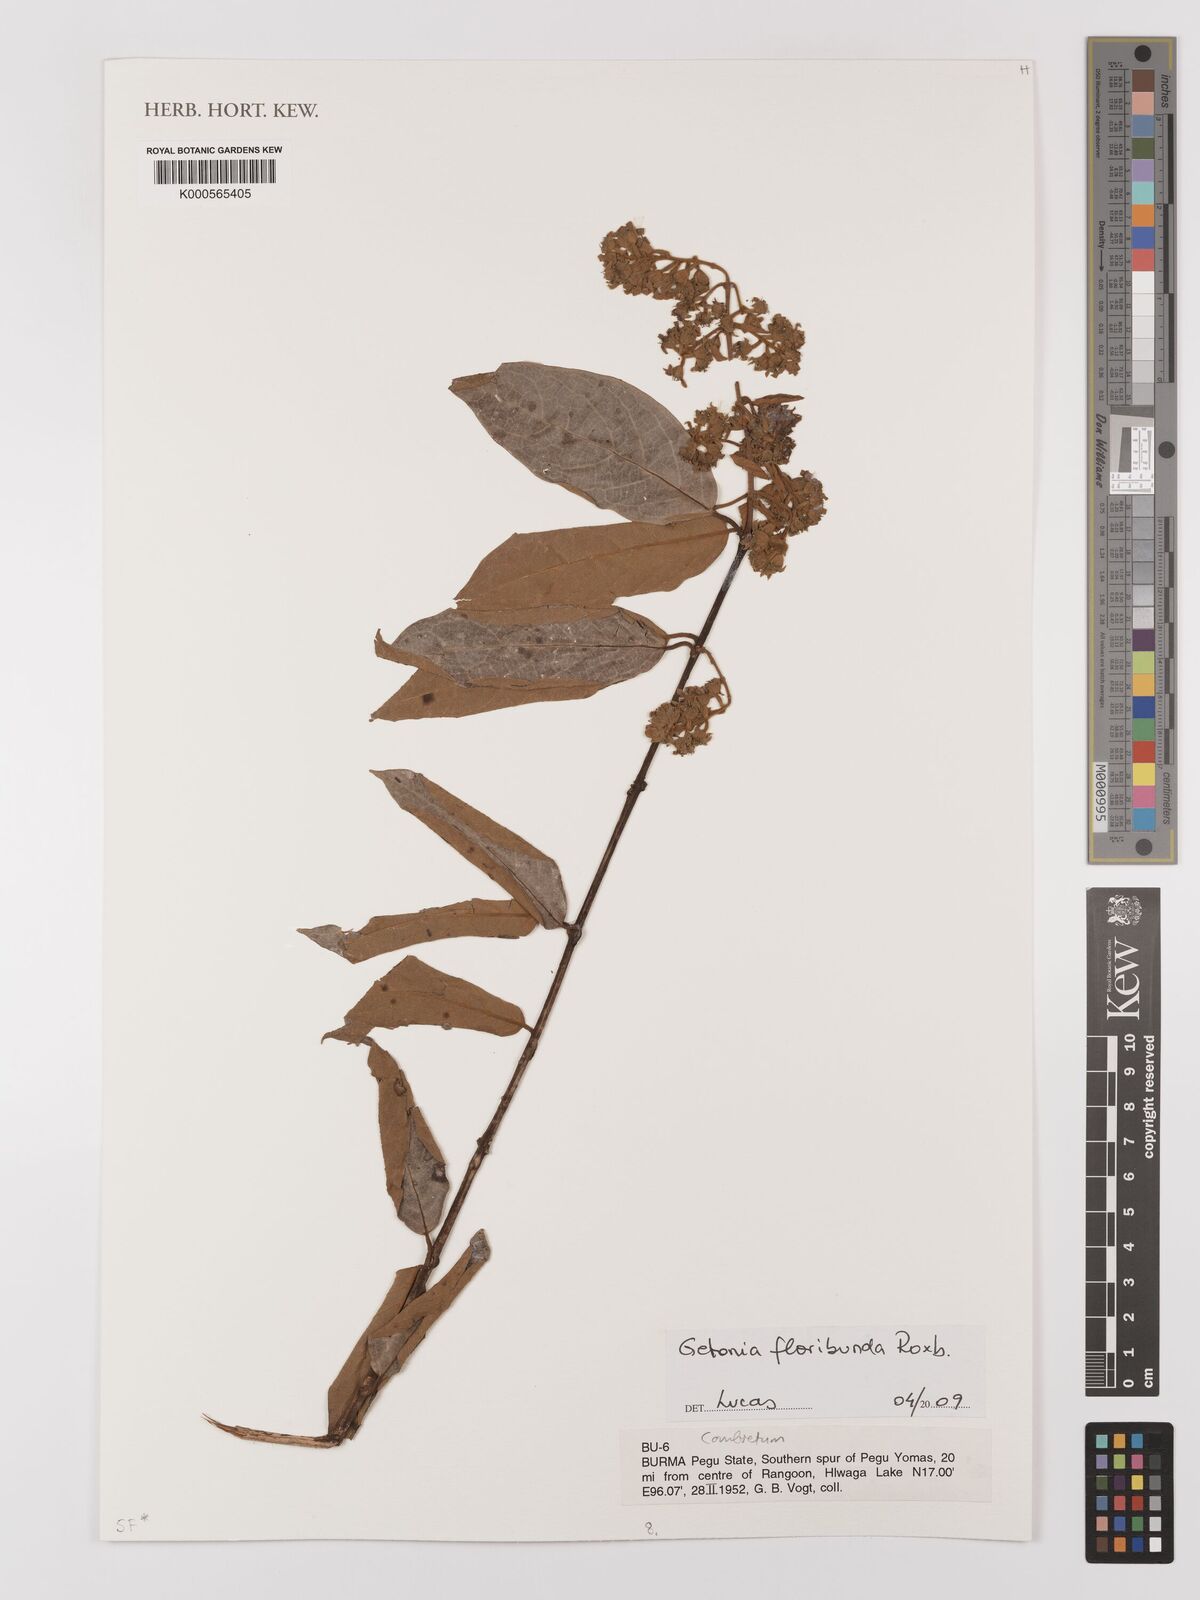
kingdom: Plantae
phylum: Tracheophyta
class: Magnoliopsida
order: Myrtales
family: Combretaceae
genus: Getonia
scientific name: Getonia floribunda
